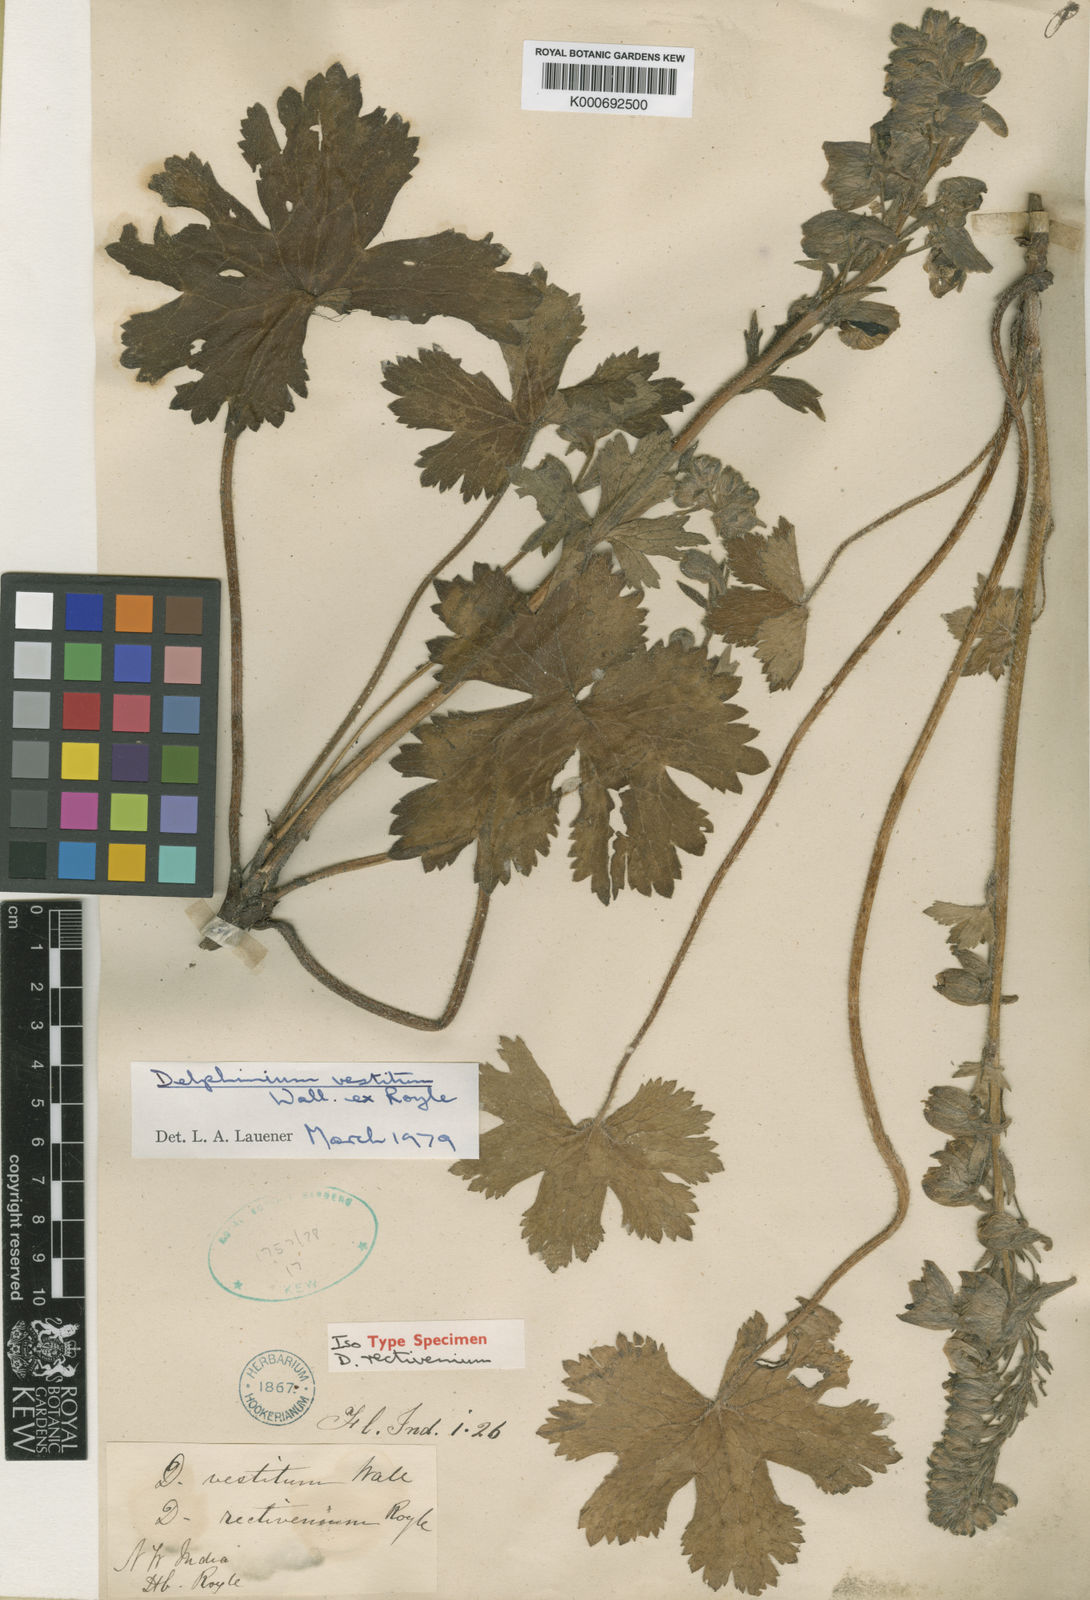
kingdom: Plantae
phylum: Tracheophyta
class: Magnoliopsida
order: Ranunculales
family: Ranunculaceae
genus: Delphinium
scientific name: Delphinium vestitum
